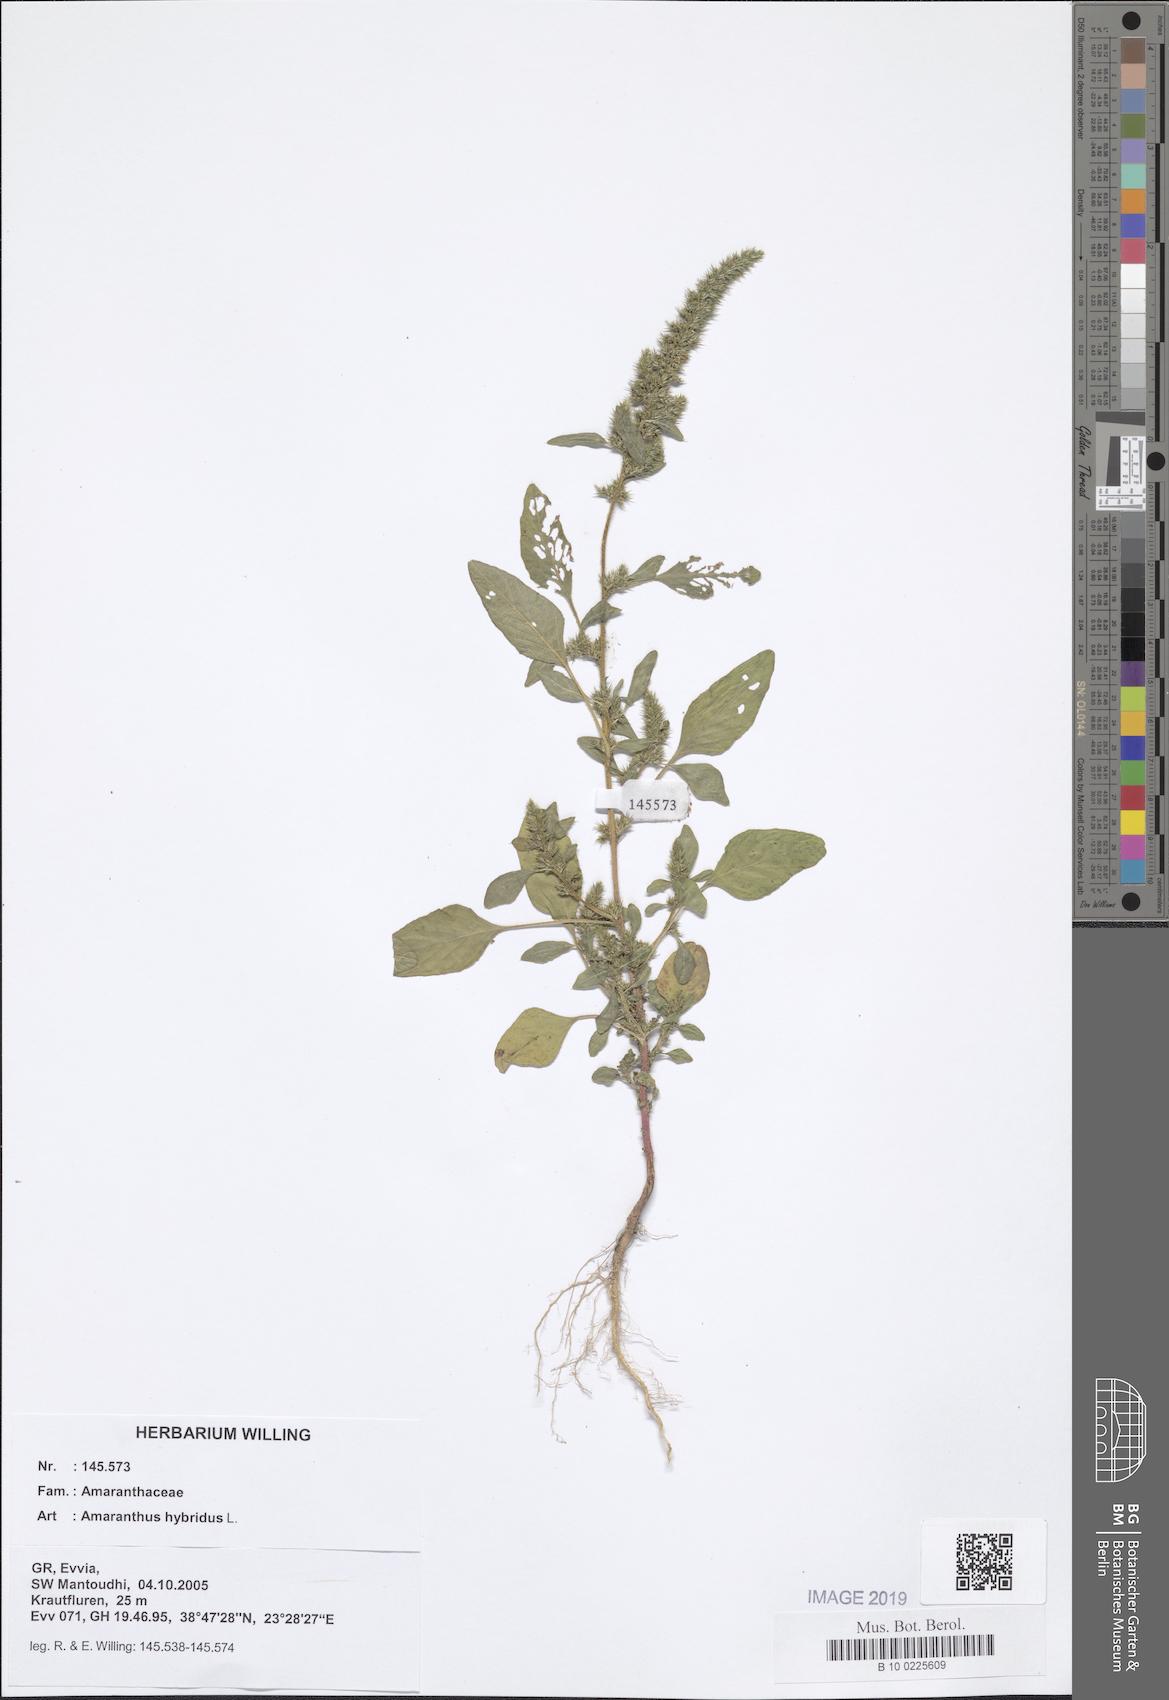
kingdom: Plantae
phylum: Tracheophyta
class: Magnoliopsida
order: Caryophyllales
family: Amaranthaceae
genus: Amaranthus
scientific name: Amaranthus hybridus
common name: Green amaranth
